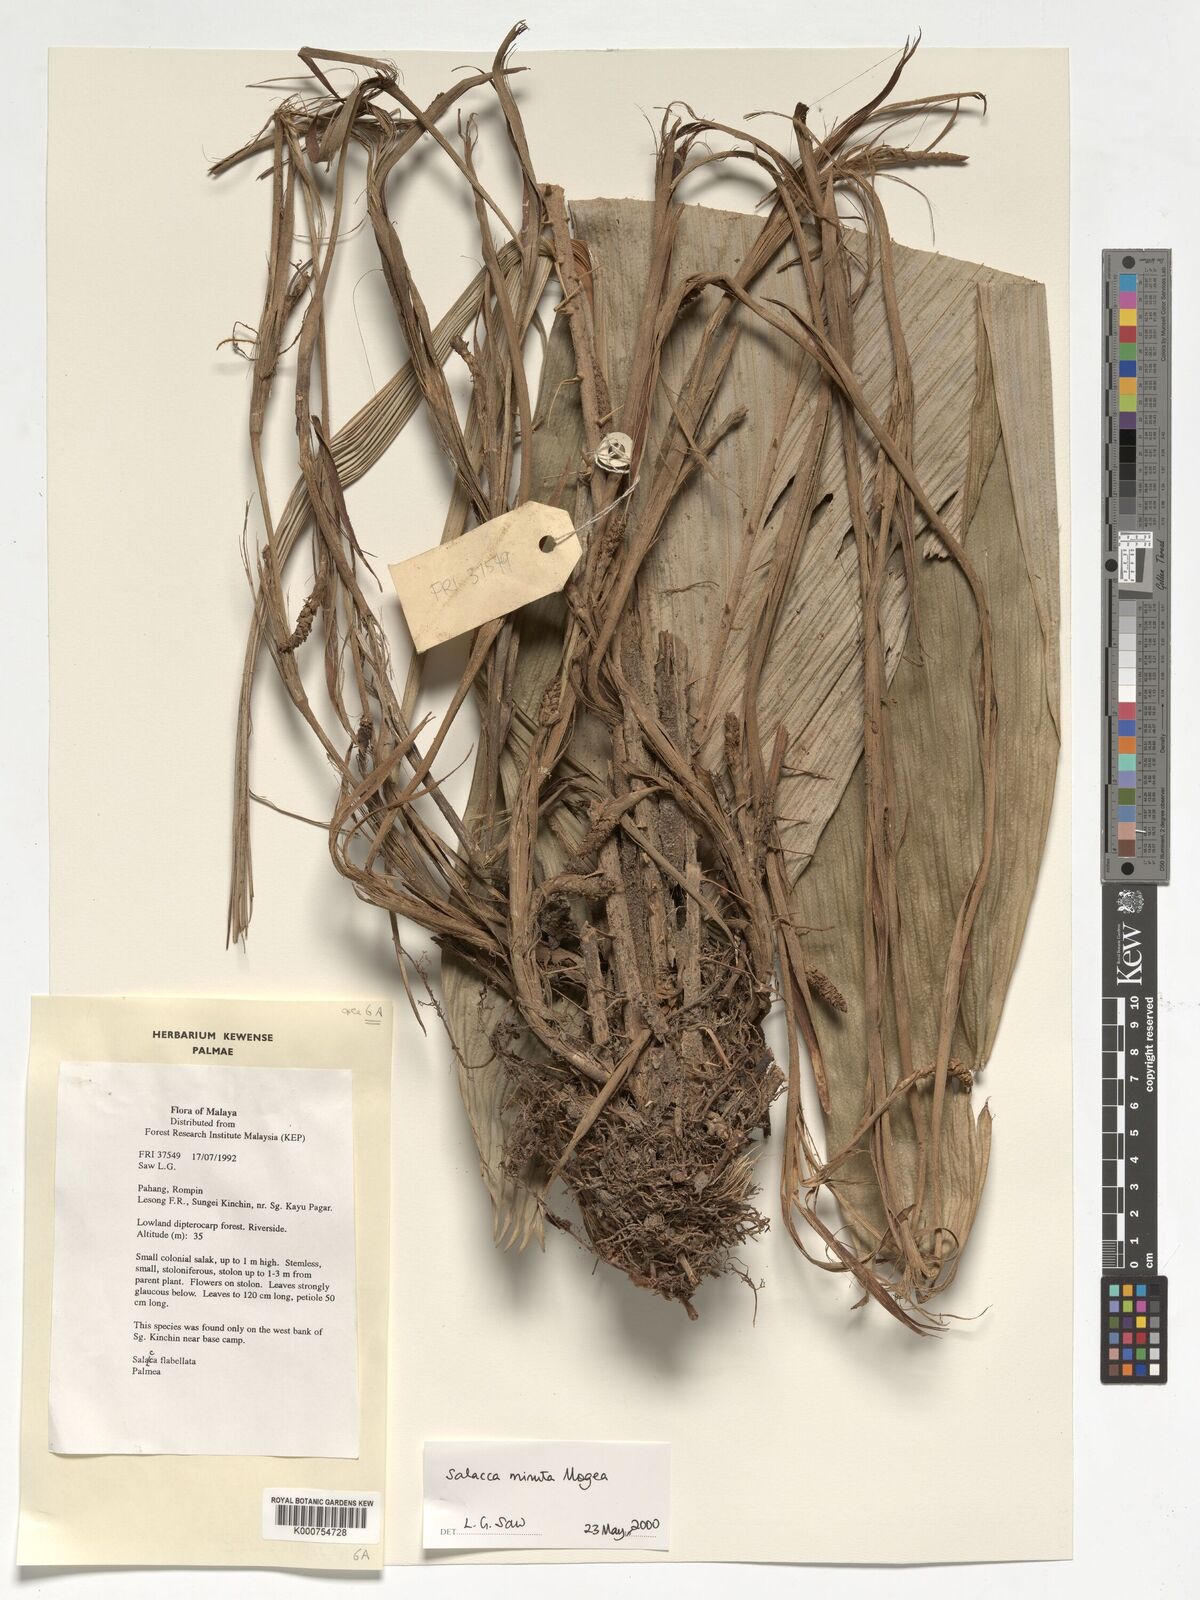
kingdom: Plantae
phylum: Tracheophyta
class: Liliopsida
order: Arecales
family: Arecaceae
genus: Salacca
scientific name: Salacca minuta
